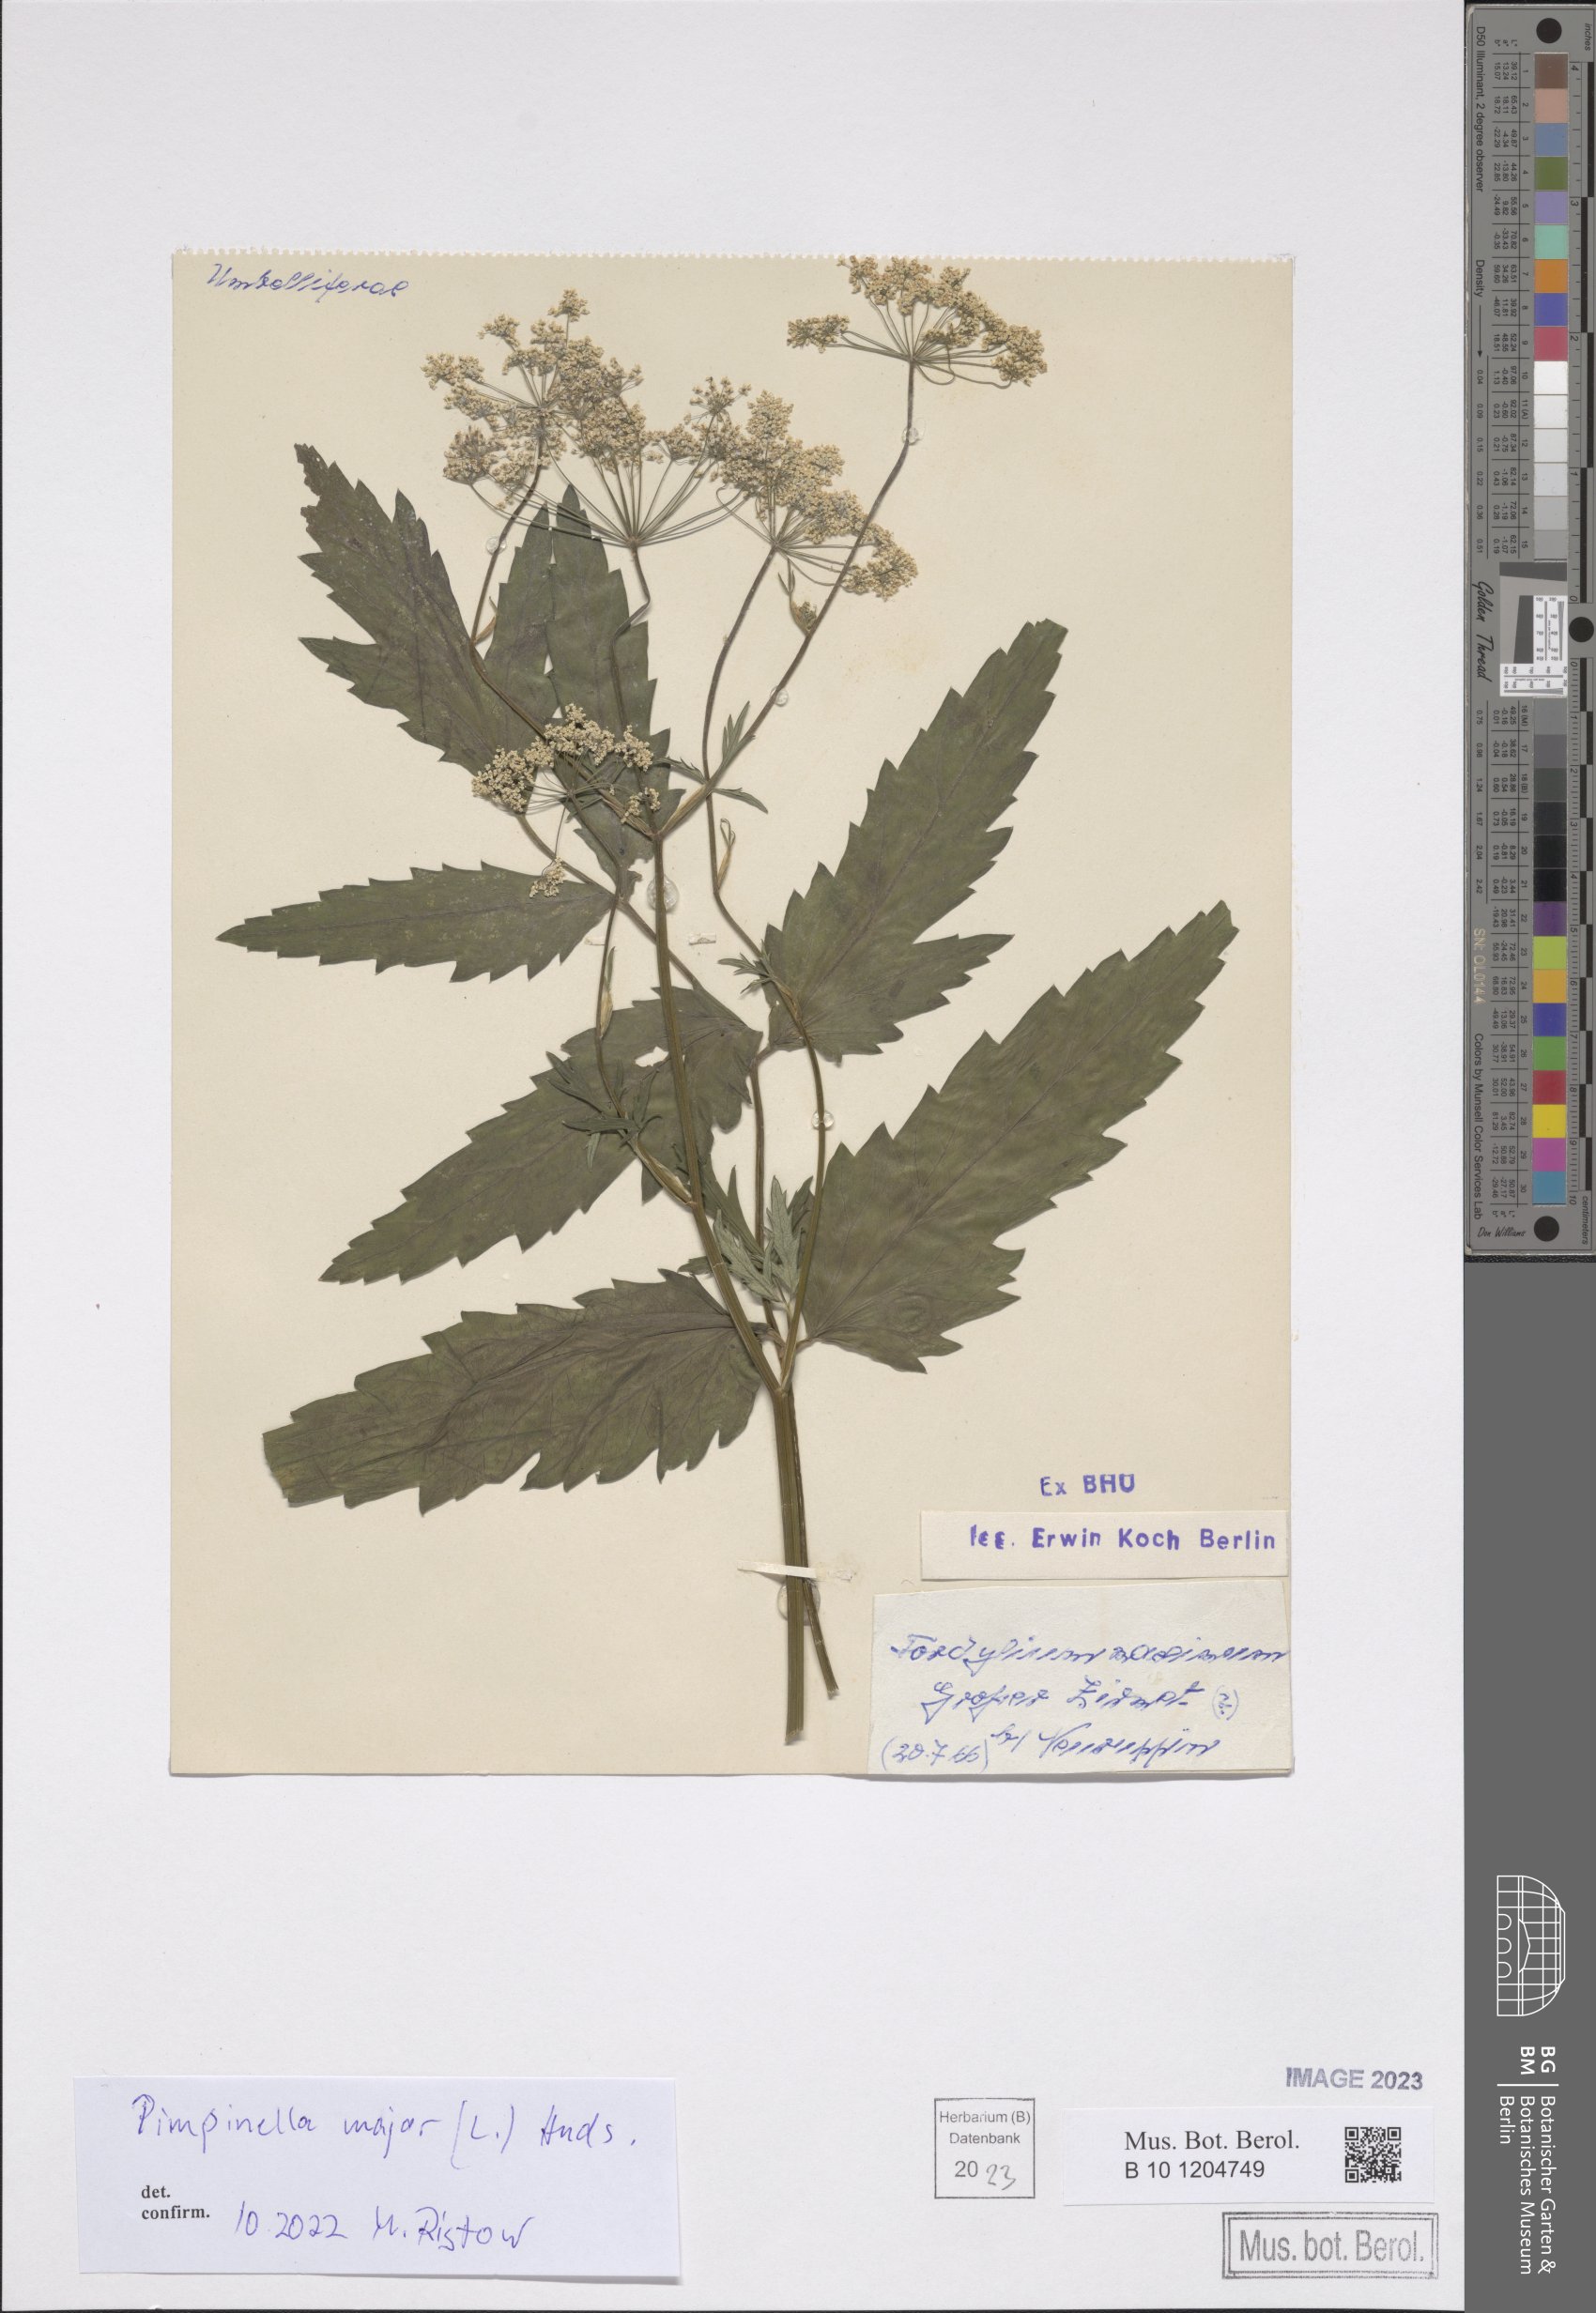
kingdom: Plantae
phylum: Tracheophyta
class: Magnoliopsida
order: Apiales
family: Apiaceae
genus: Pimpinella
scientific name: Pimpinella major
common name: Greater burnet-saxifrage
